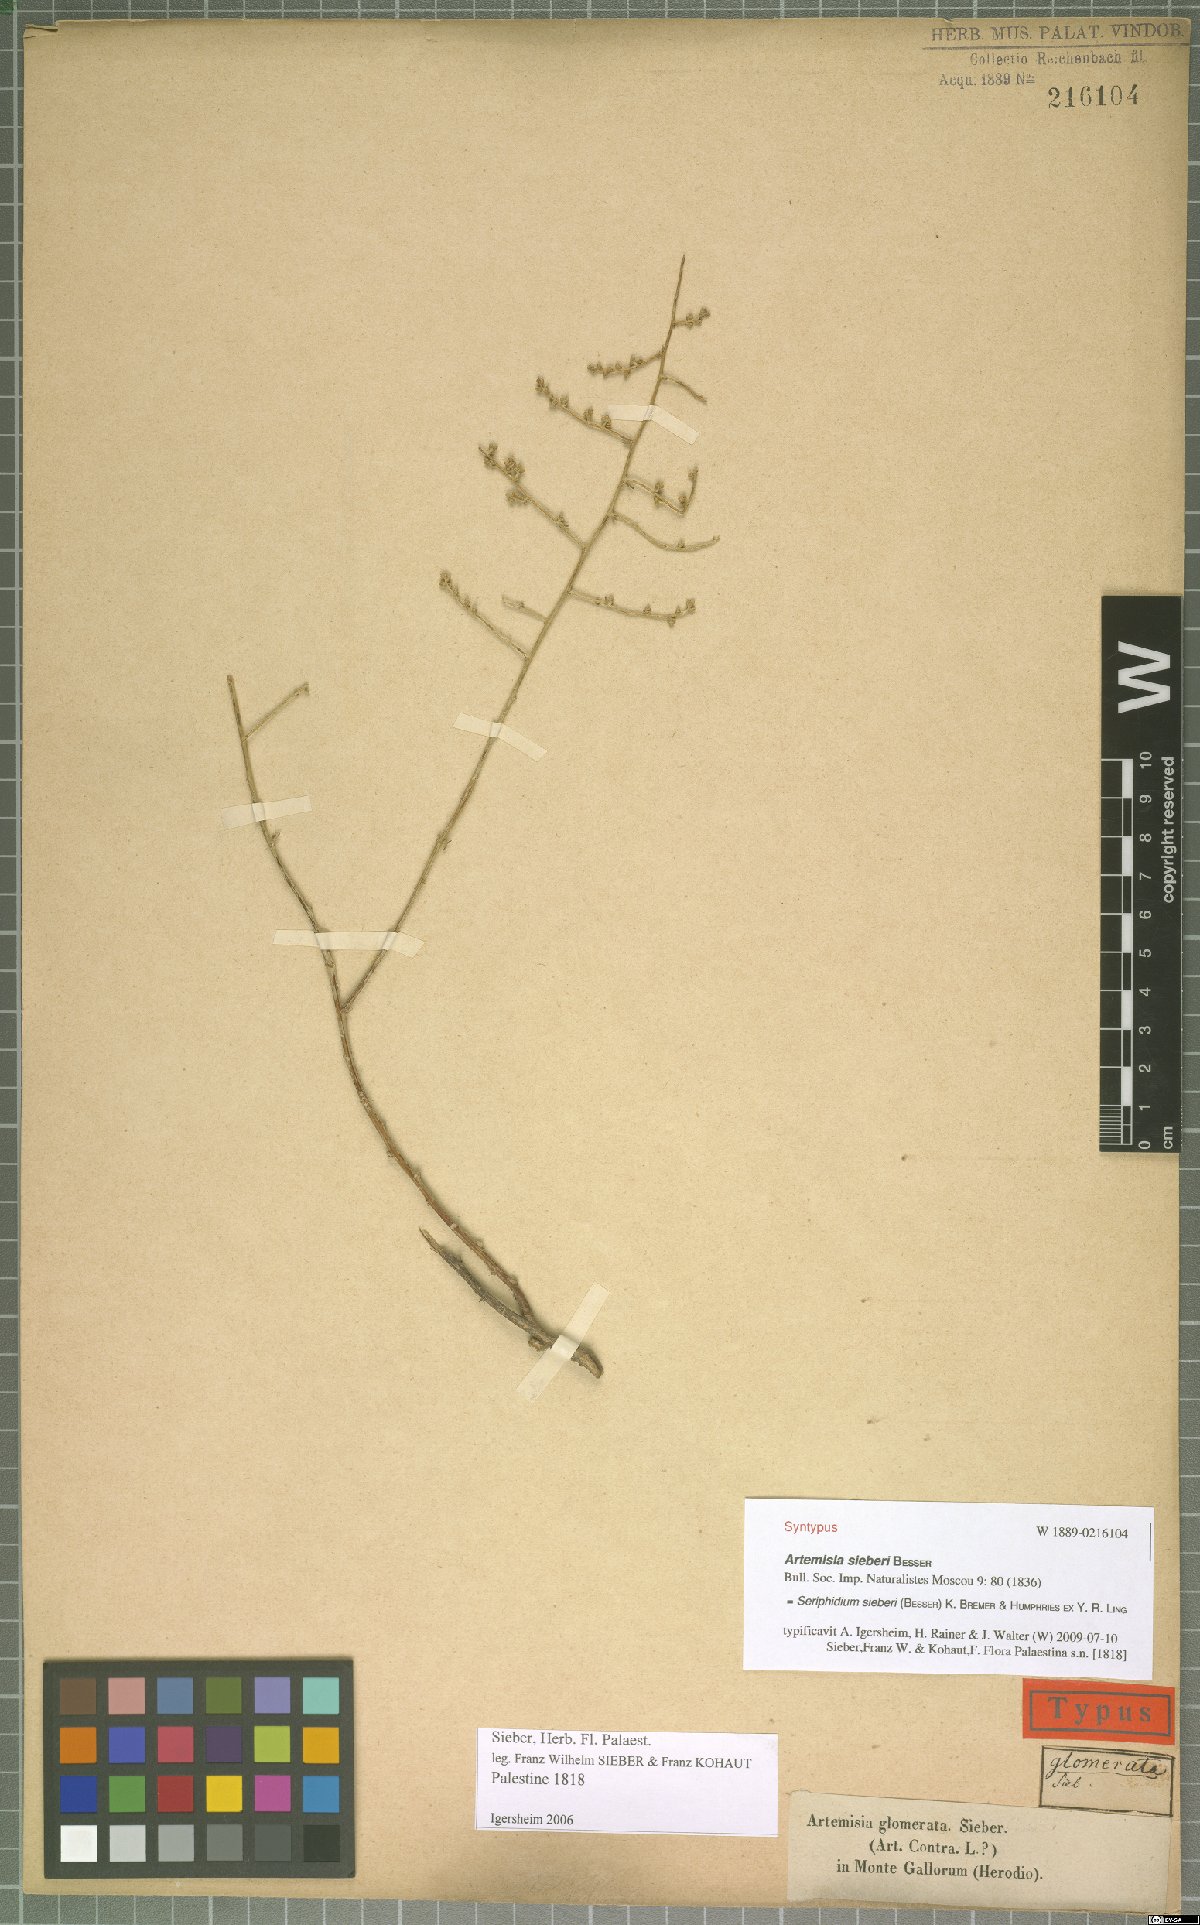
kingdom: Plantae
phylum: Tracheophyta
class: Magnoliopsida
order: Asterales
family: Asteraceae
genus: Artemisia
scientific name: Artemisia sieberi
